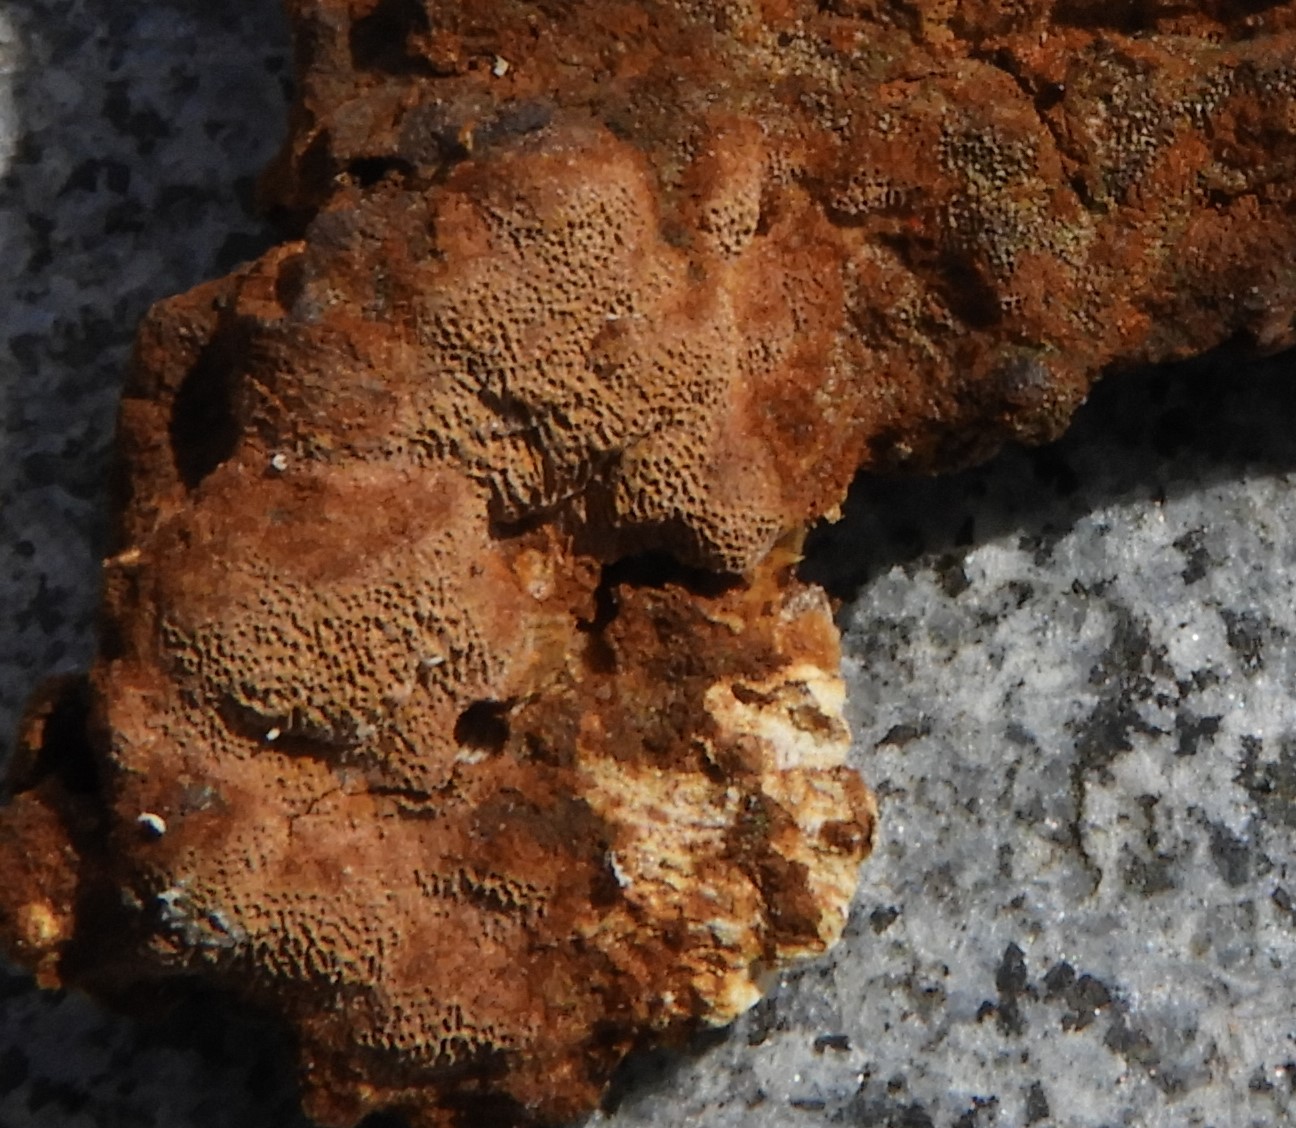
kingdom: Fungi
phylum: Basidiomycota
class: Agaricomycetes
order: Hymenochaetales
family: Hymenochaetaceae
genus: Fuscoporia
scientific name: Fuscoporia ferrea
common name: skorpe-ildporesvamp
